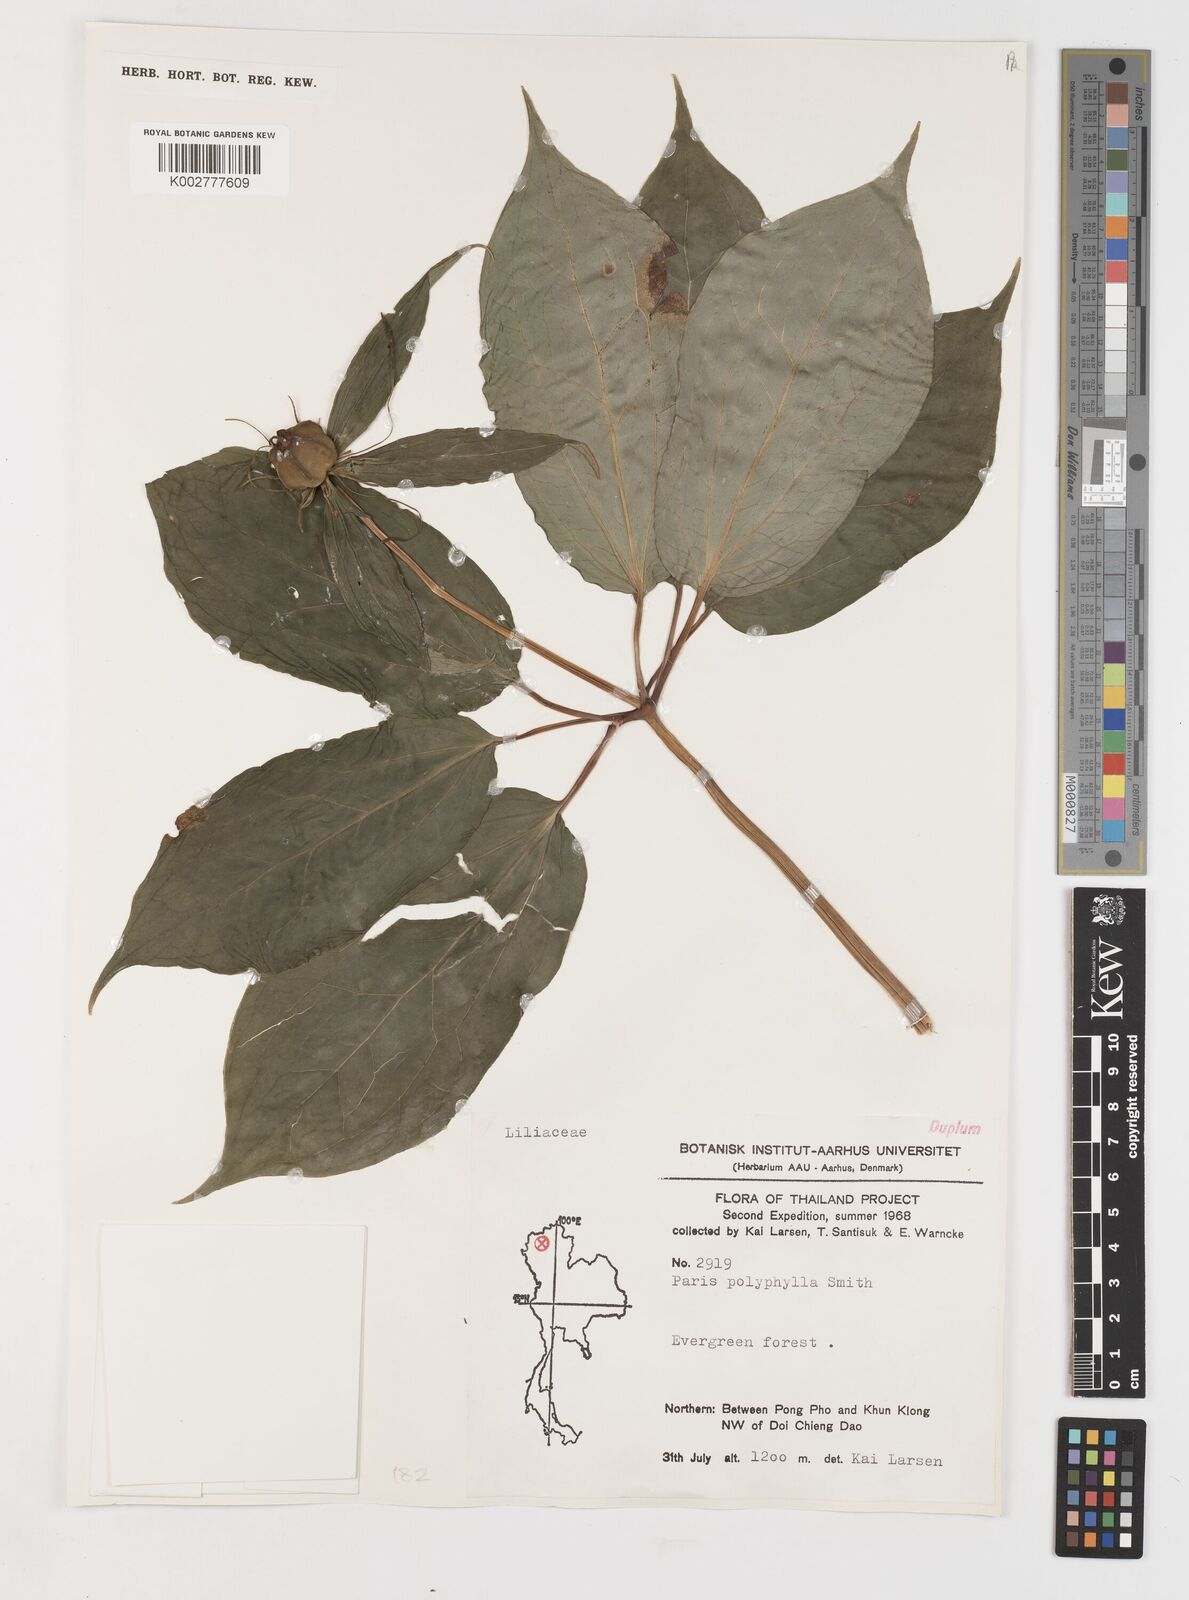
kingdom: Plantae
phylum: Tracheophyta
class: Liliopsida
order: Liliales
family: Melanthiaceae
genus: Paris
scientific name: Paris polyphylla
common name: Love apple
